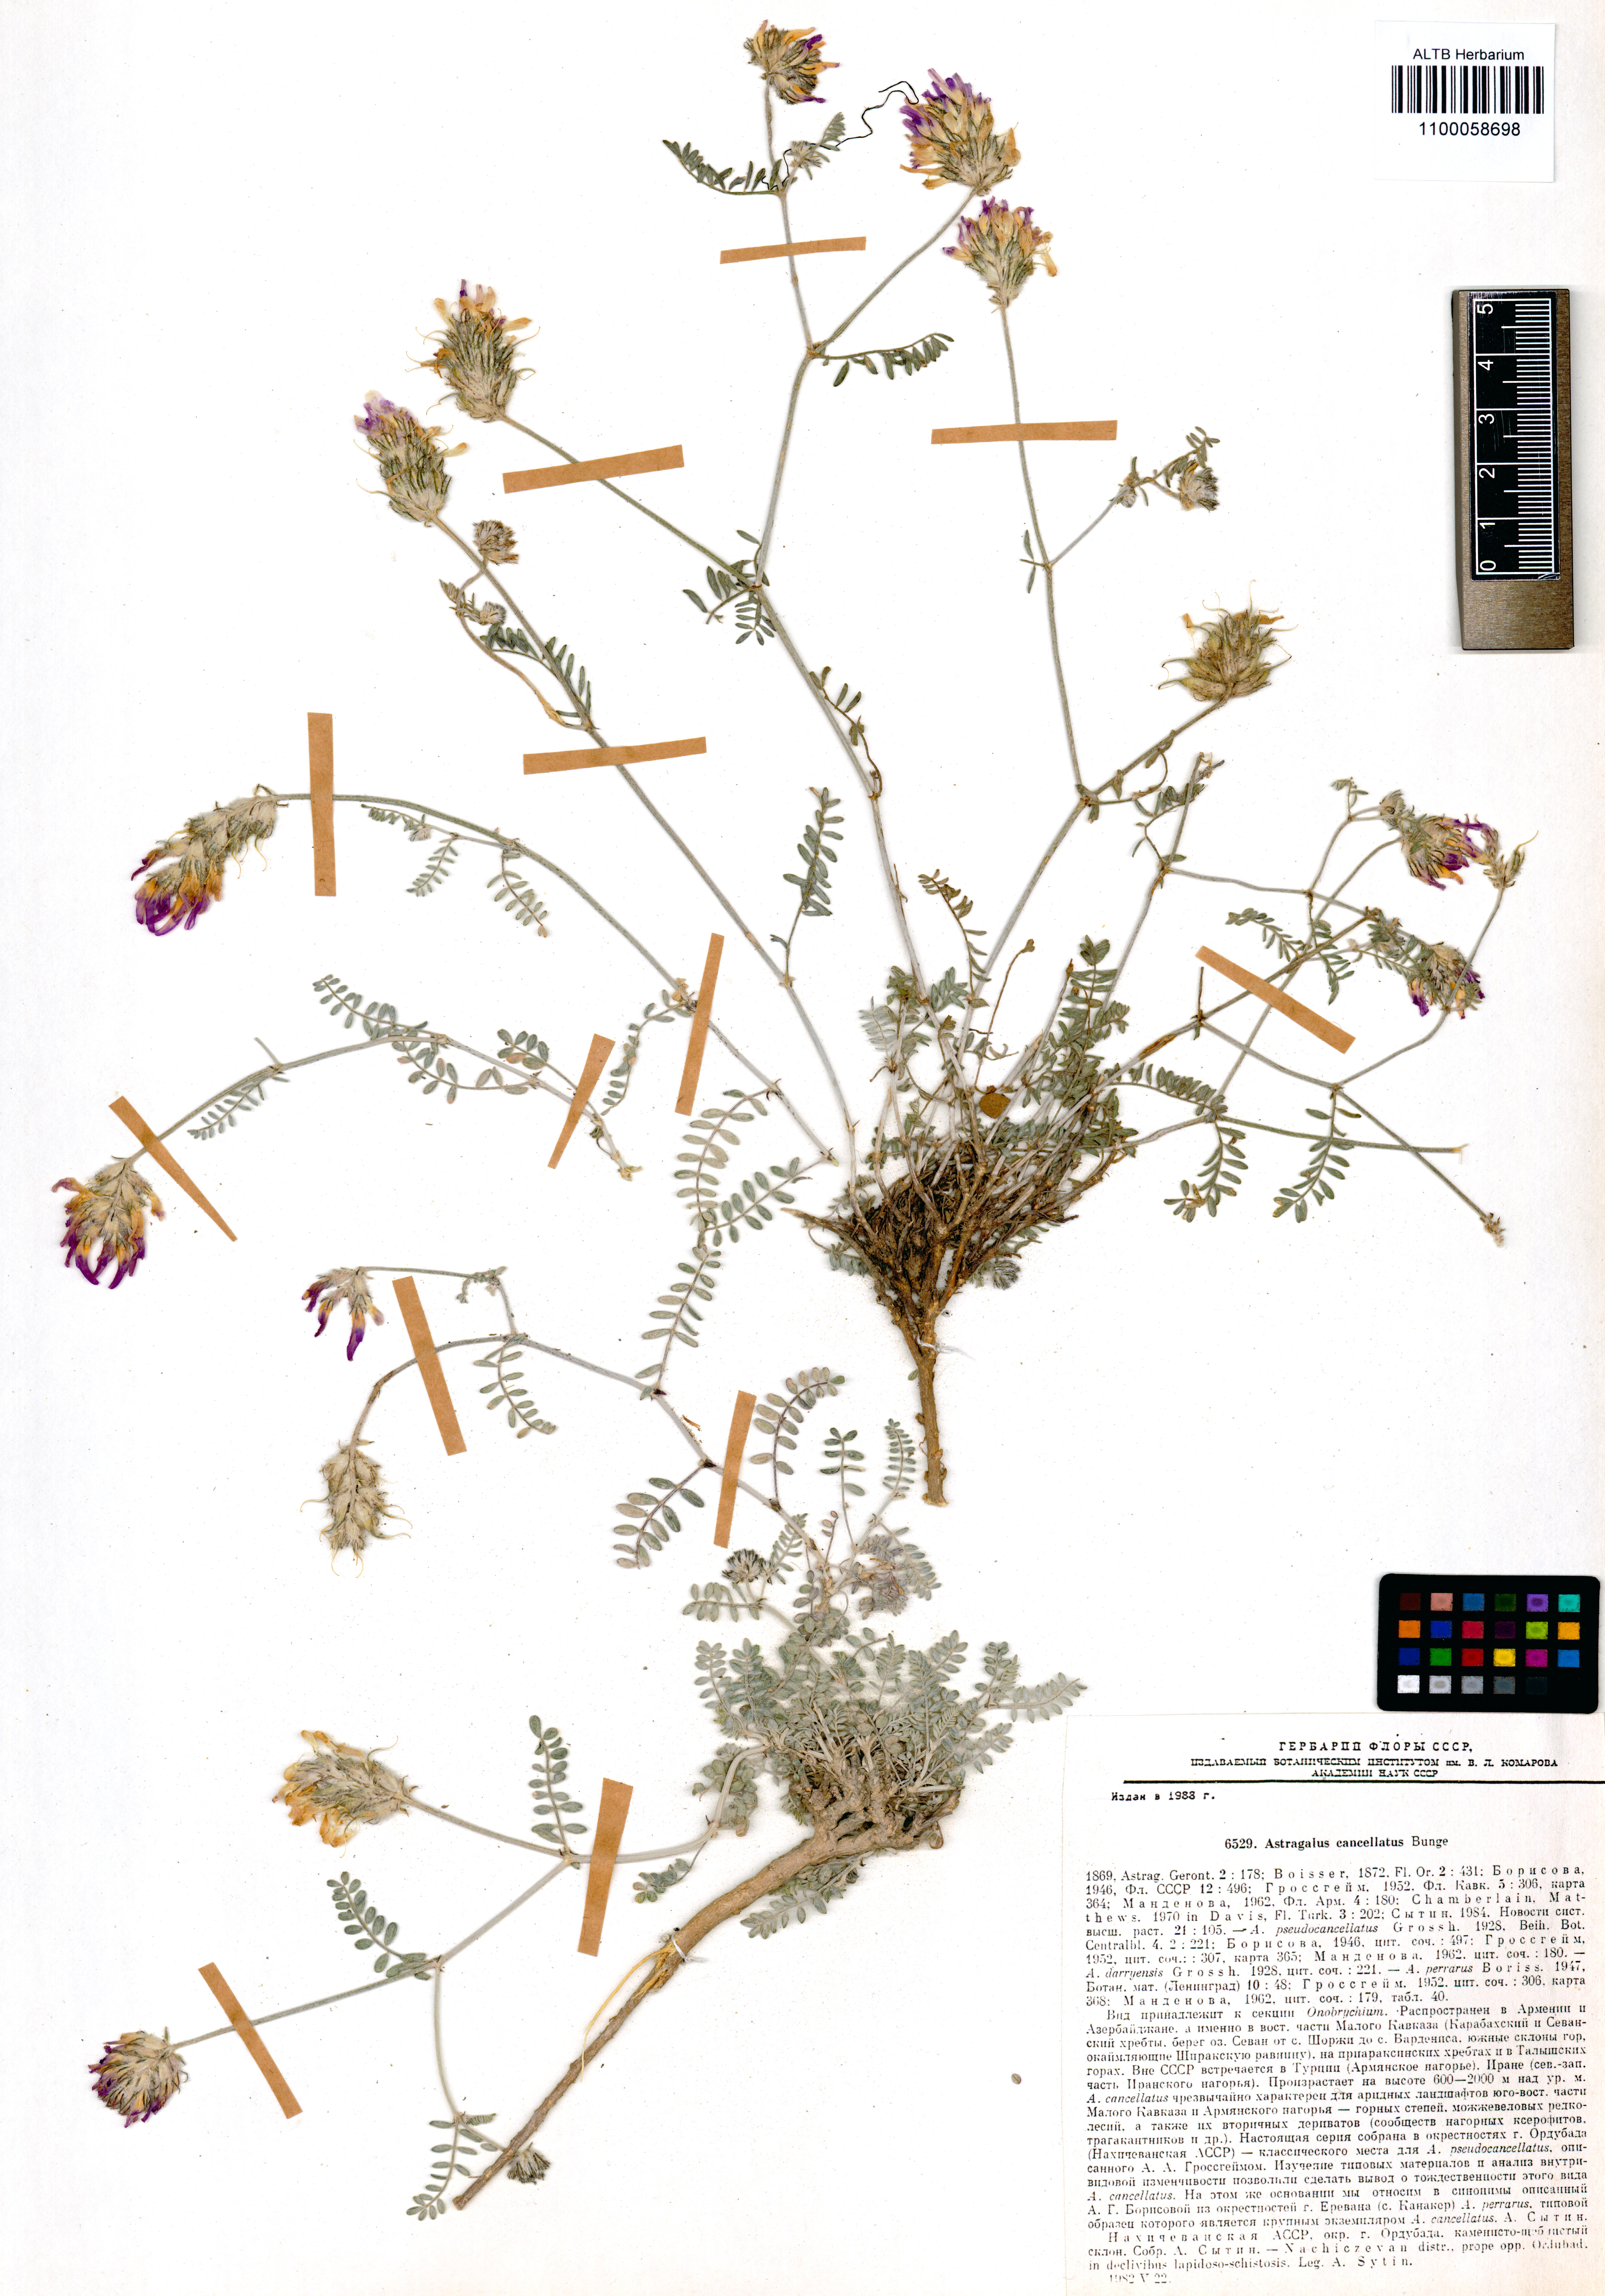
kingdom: Plantae
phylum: Tracheophyta
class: Magnoliopsida
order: Fabales
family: Fabaceae
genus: Astragalus
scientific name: Astragalus cancellatus
